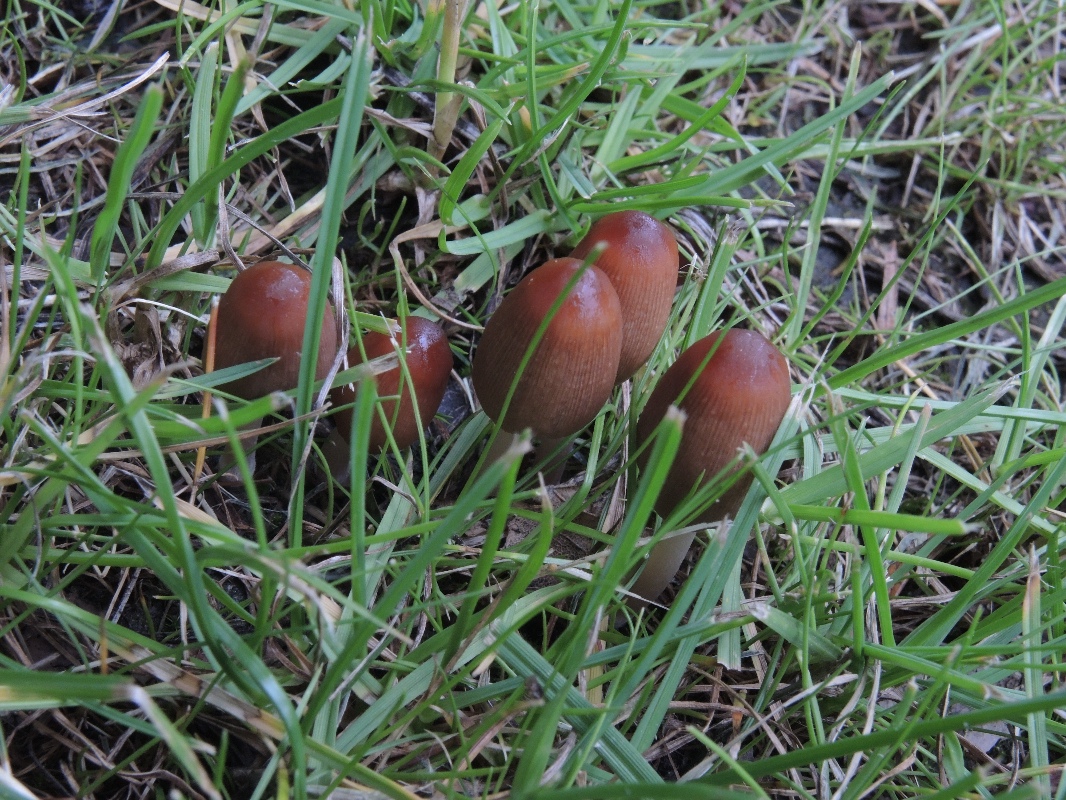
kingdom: Fungi
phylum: Basidiomycota
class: Agaricomycetes
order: Agaricales
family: Psathyrellaceae
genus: Parasola
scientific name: Parasola auricoma
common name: hansens hjulhat
